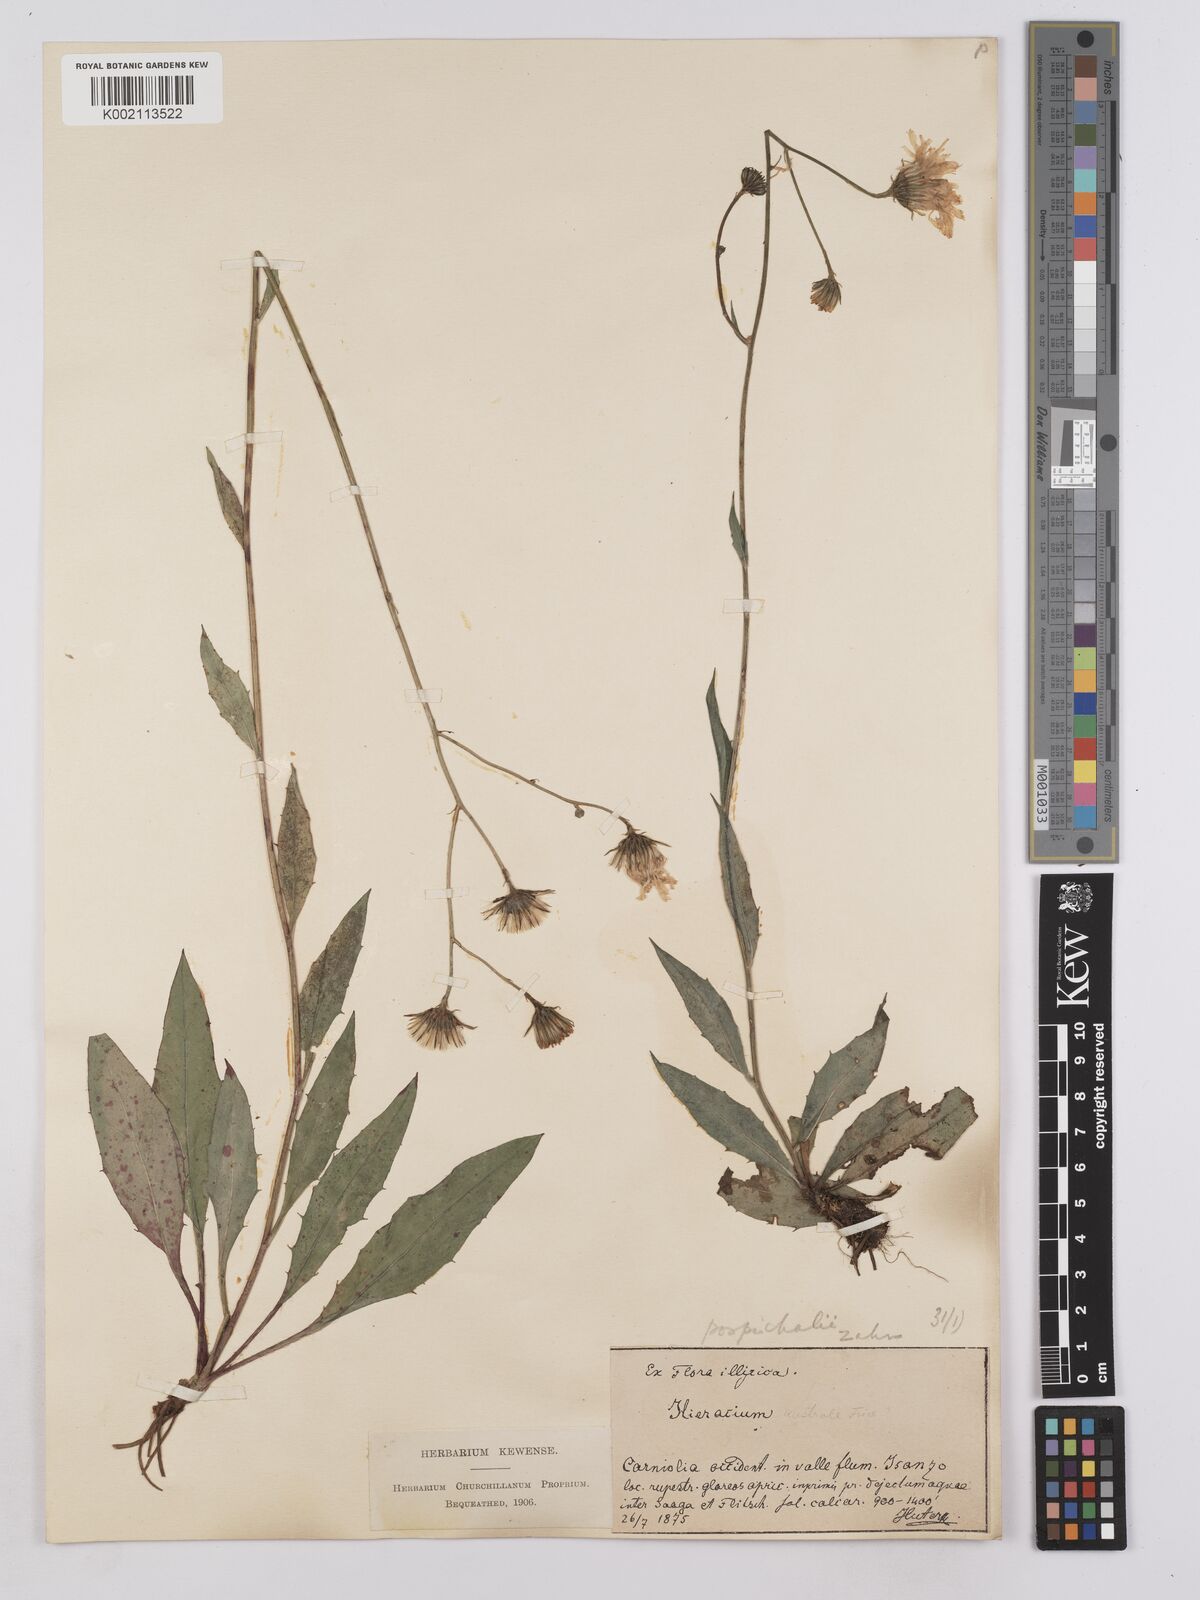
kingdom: Plantae
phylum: Tracheophyta
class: Magnoliopsida
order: Asterales
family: Asteraceae
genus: Hieracium
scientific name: Hieracium pospichalii
